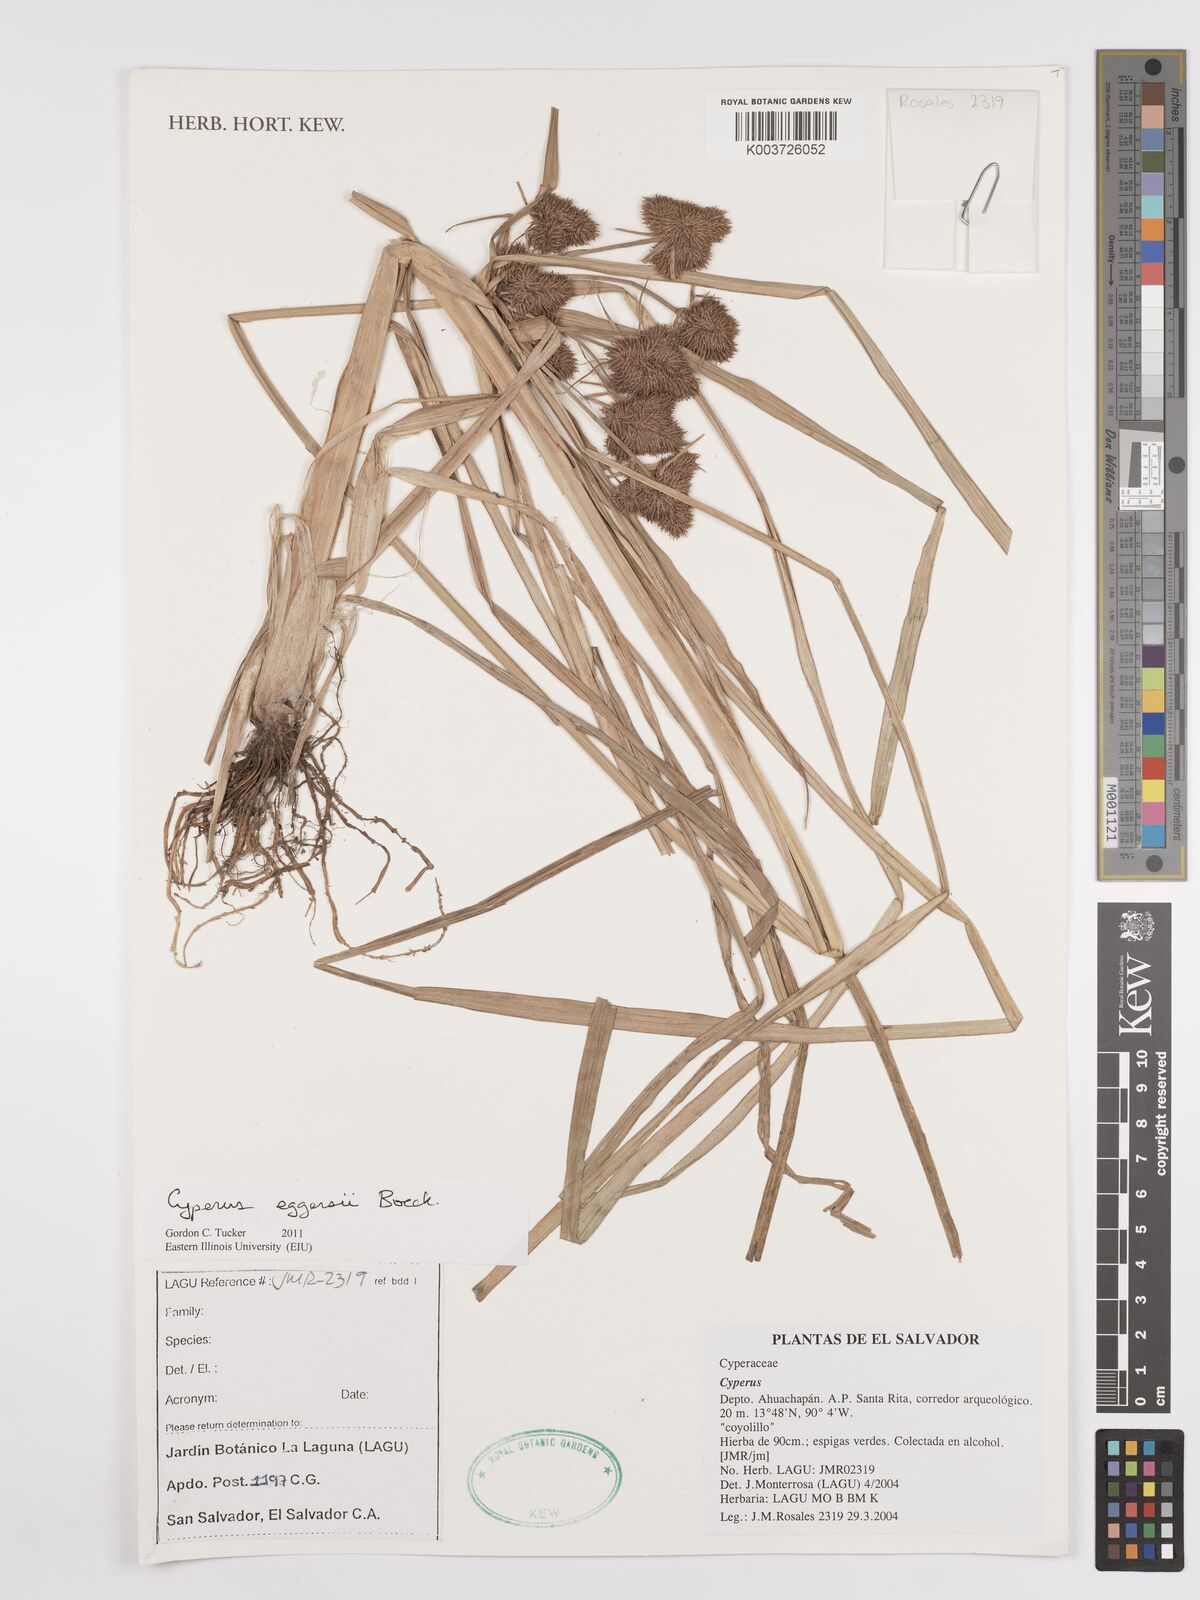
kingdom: Plantae
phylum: Tracheophyta
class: Liliopsida
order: Poales
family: Cyperaceae
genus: Cyperus
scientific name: Cyperus odoratus
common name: Fragrant flatsedge
